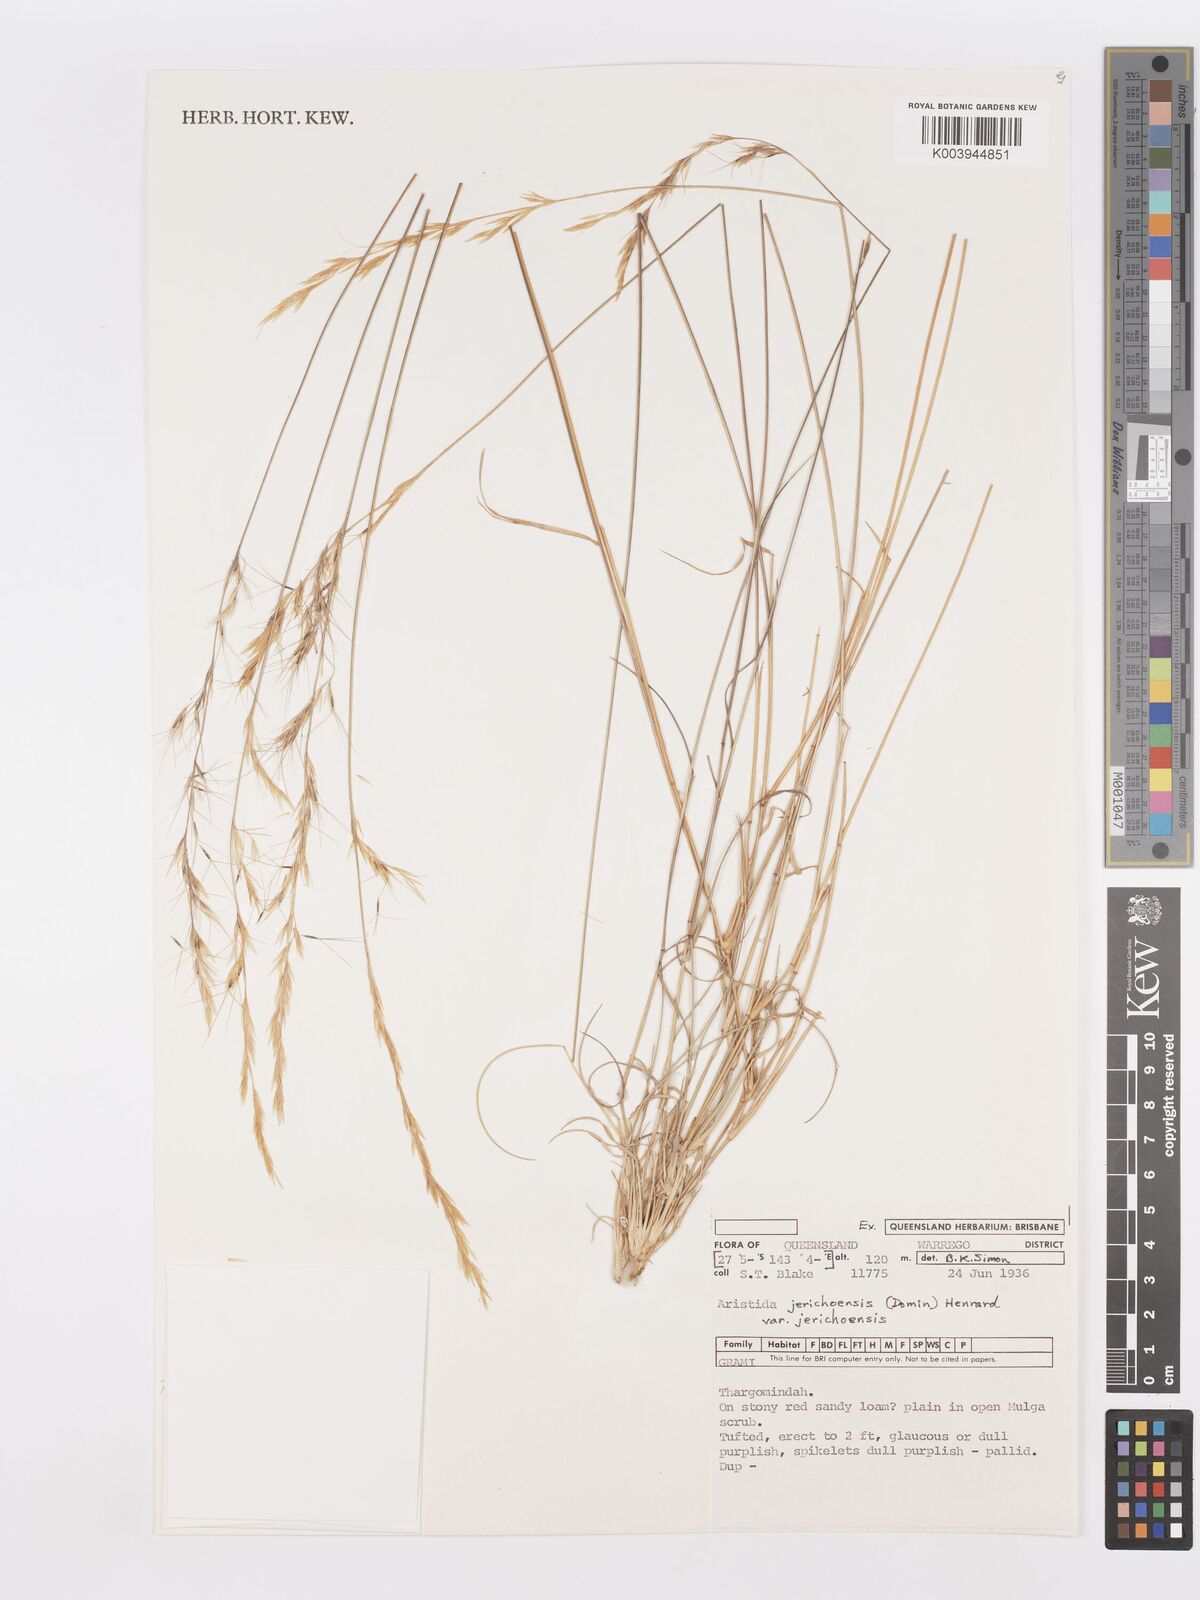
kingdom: Plantae
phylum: Tracheophyta
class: Liliopsida
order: Poales
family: Poaceae
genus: Aristida
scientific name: Aristida jerichoensis
